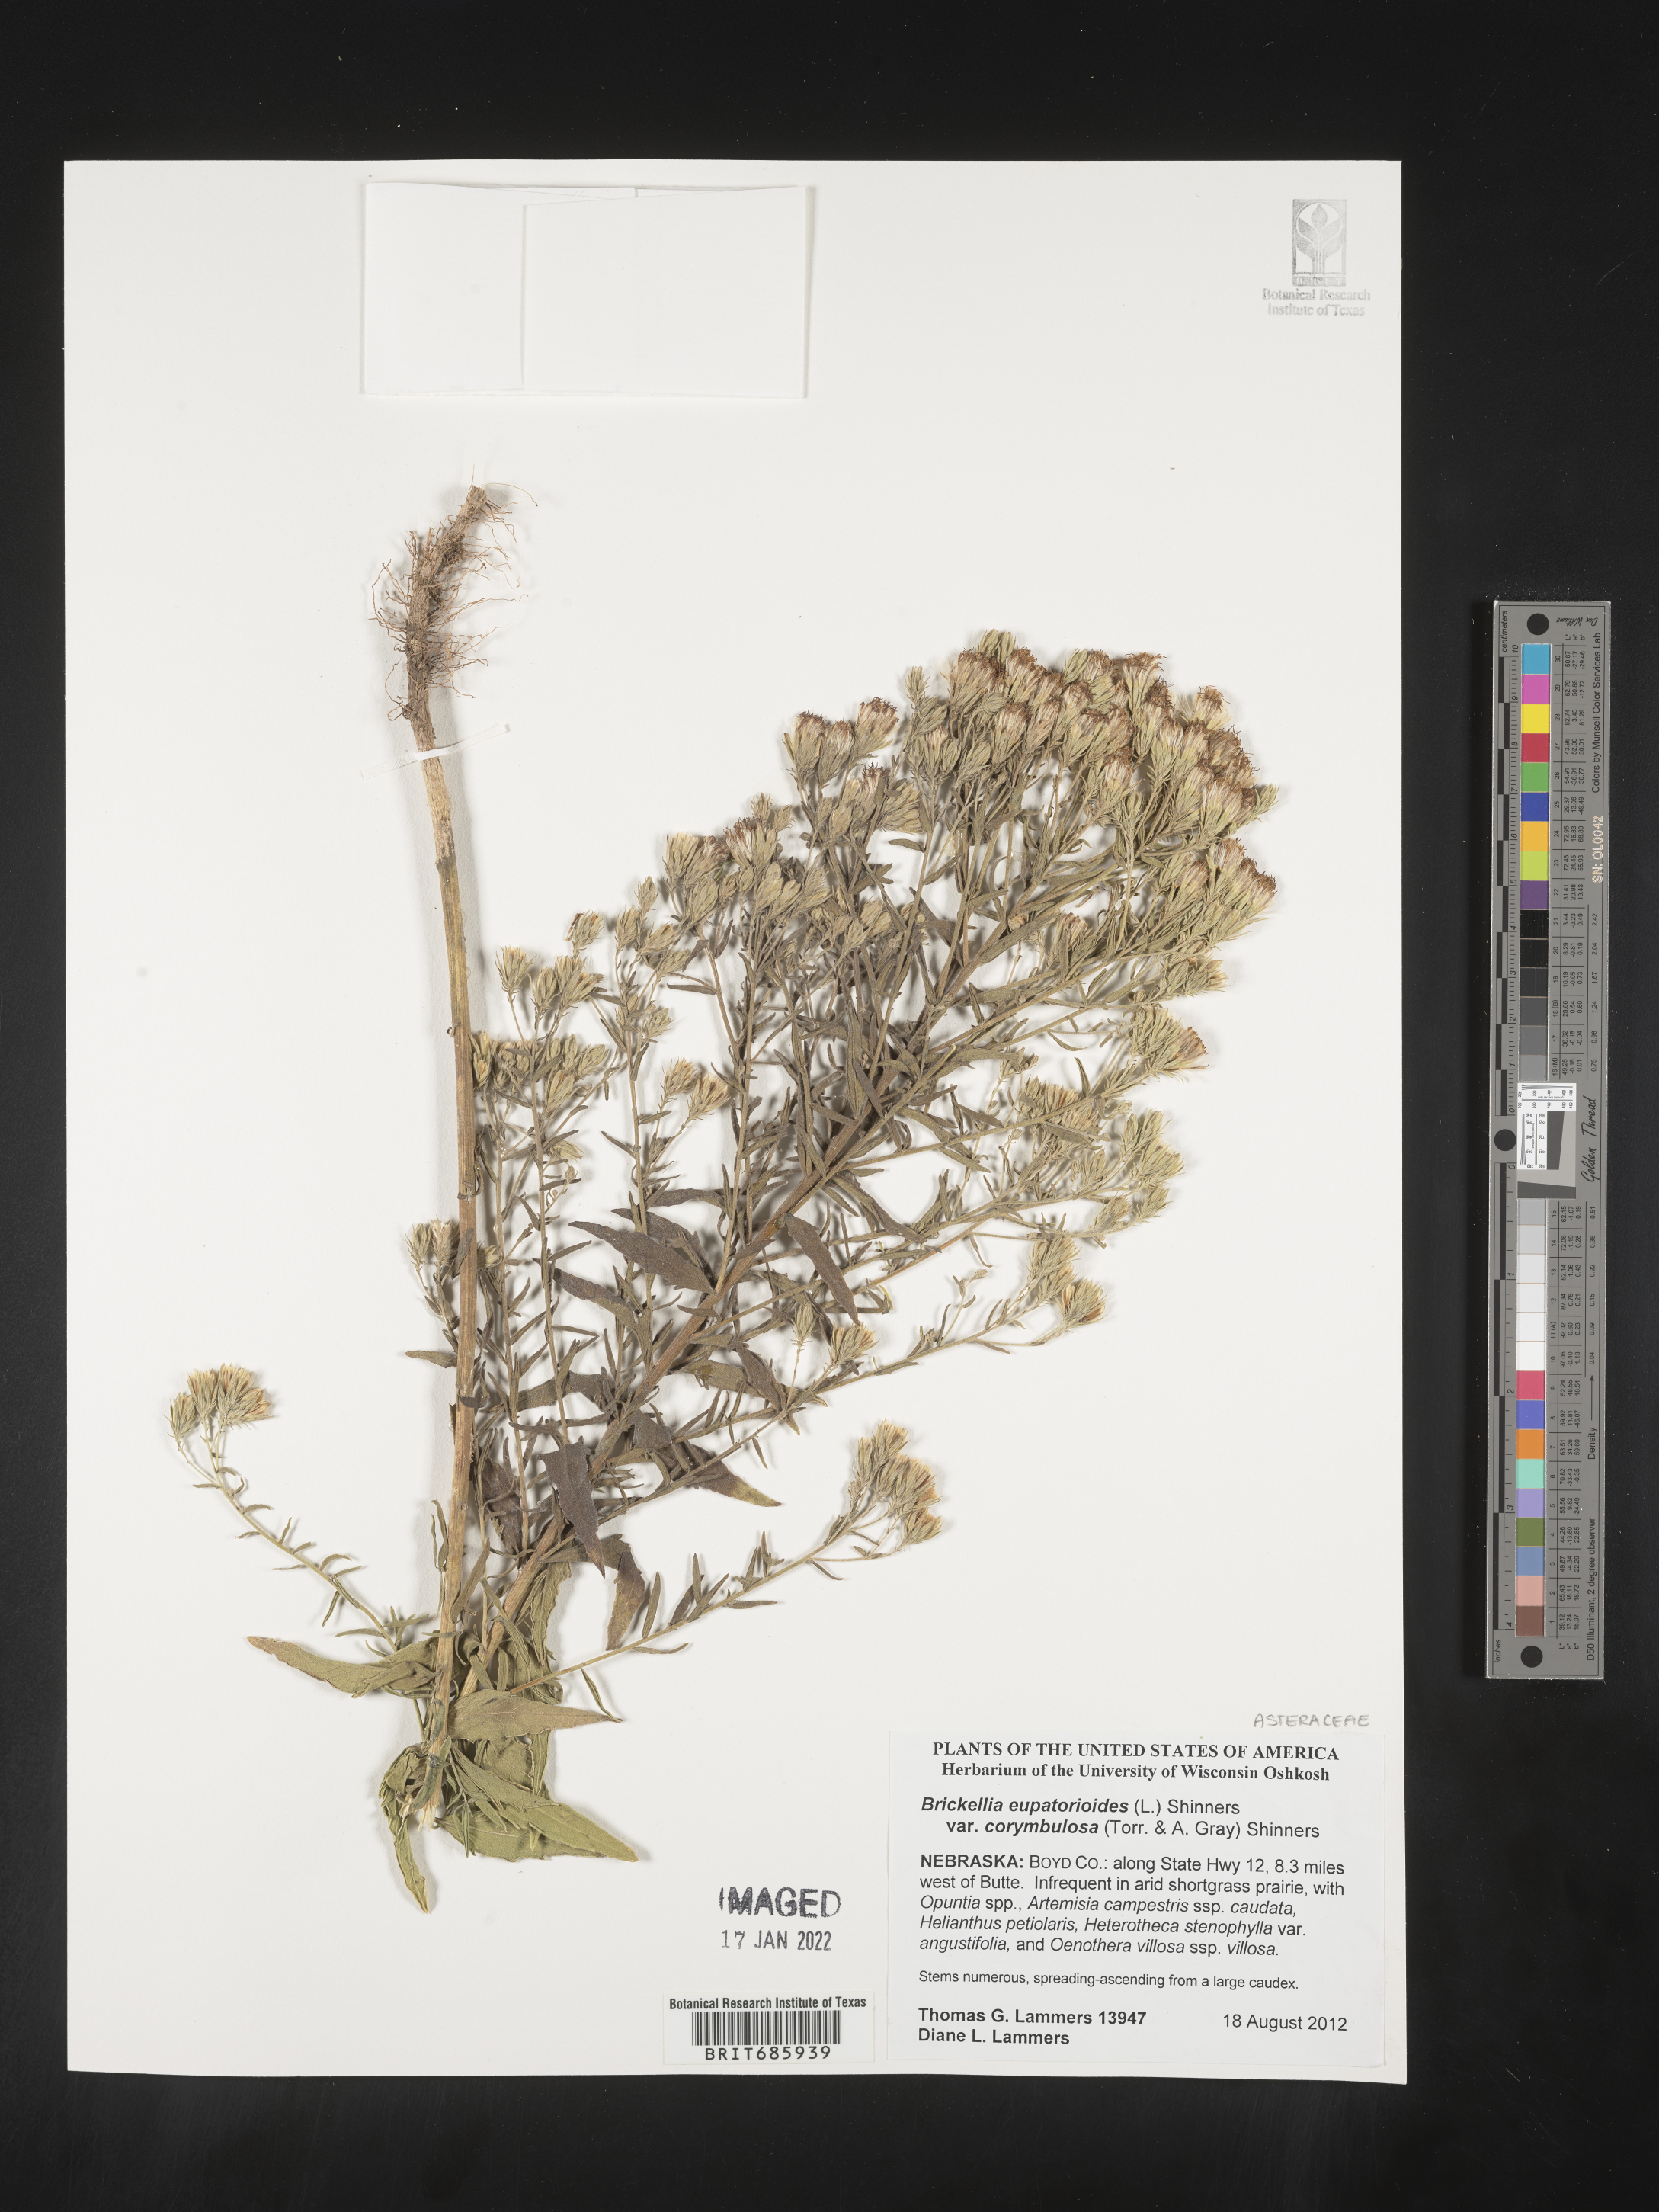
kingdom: Plantae
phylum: Tracheophyta
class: Magnoliopsida
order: Asterales
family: Asteraceae
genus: Brickellia
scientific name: Brickellia eupatorioides
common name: False boneset
